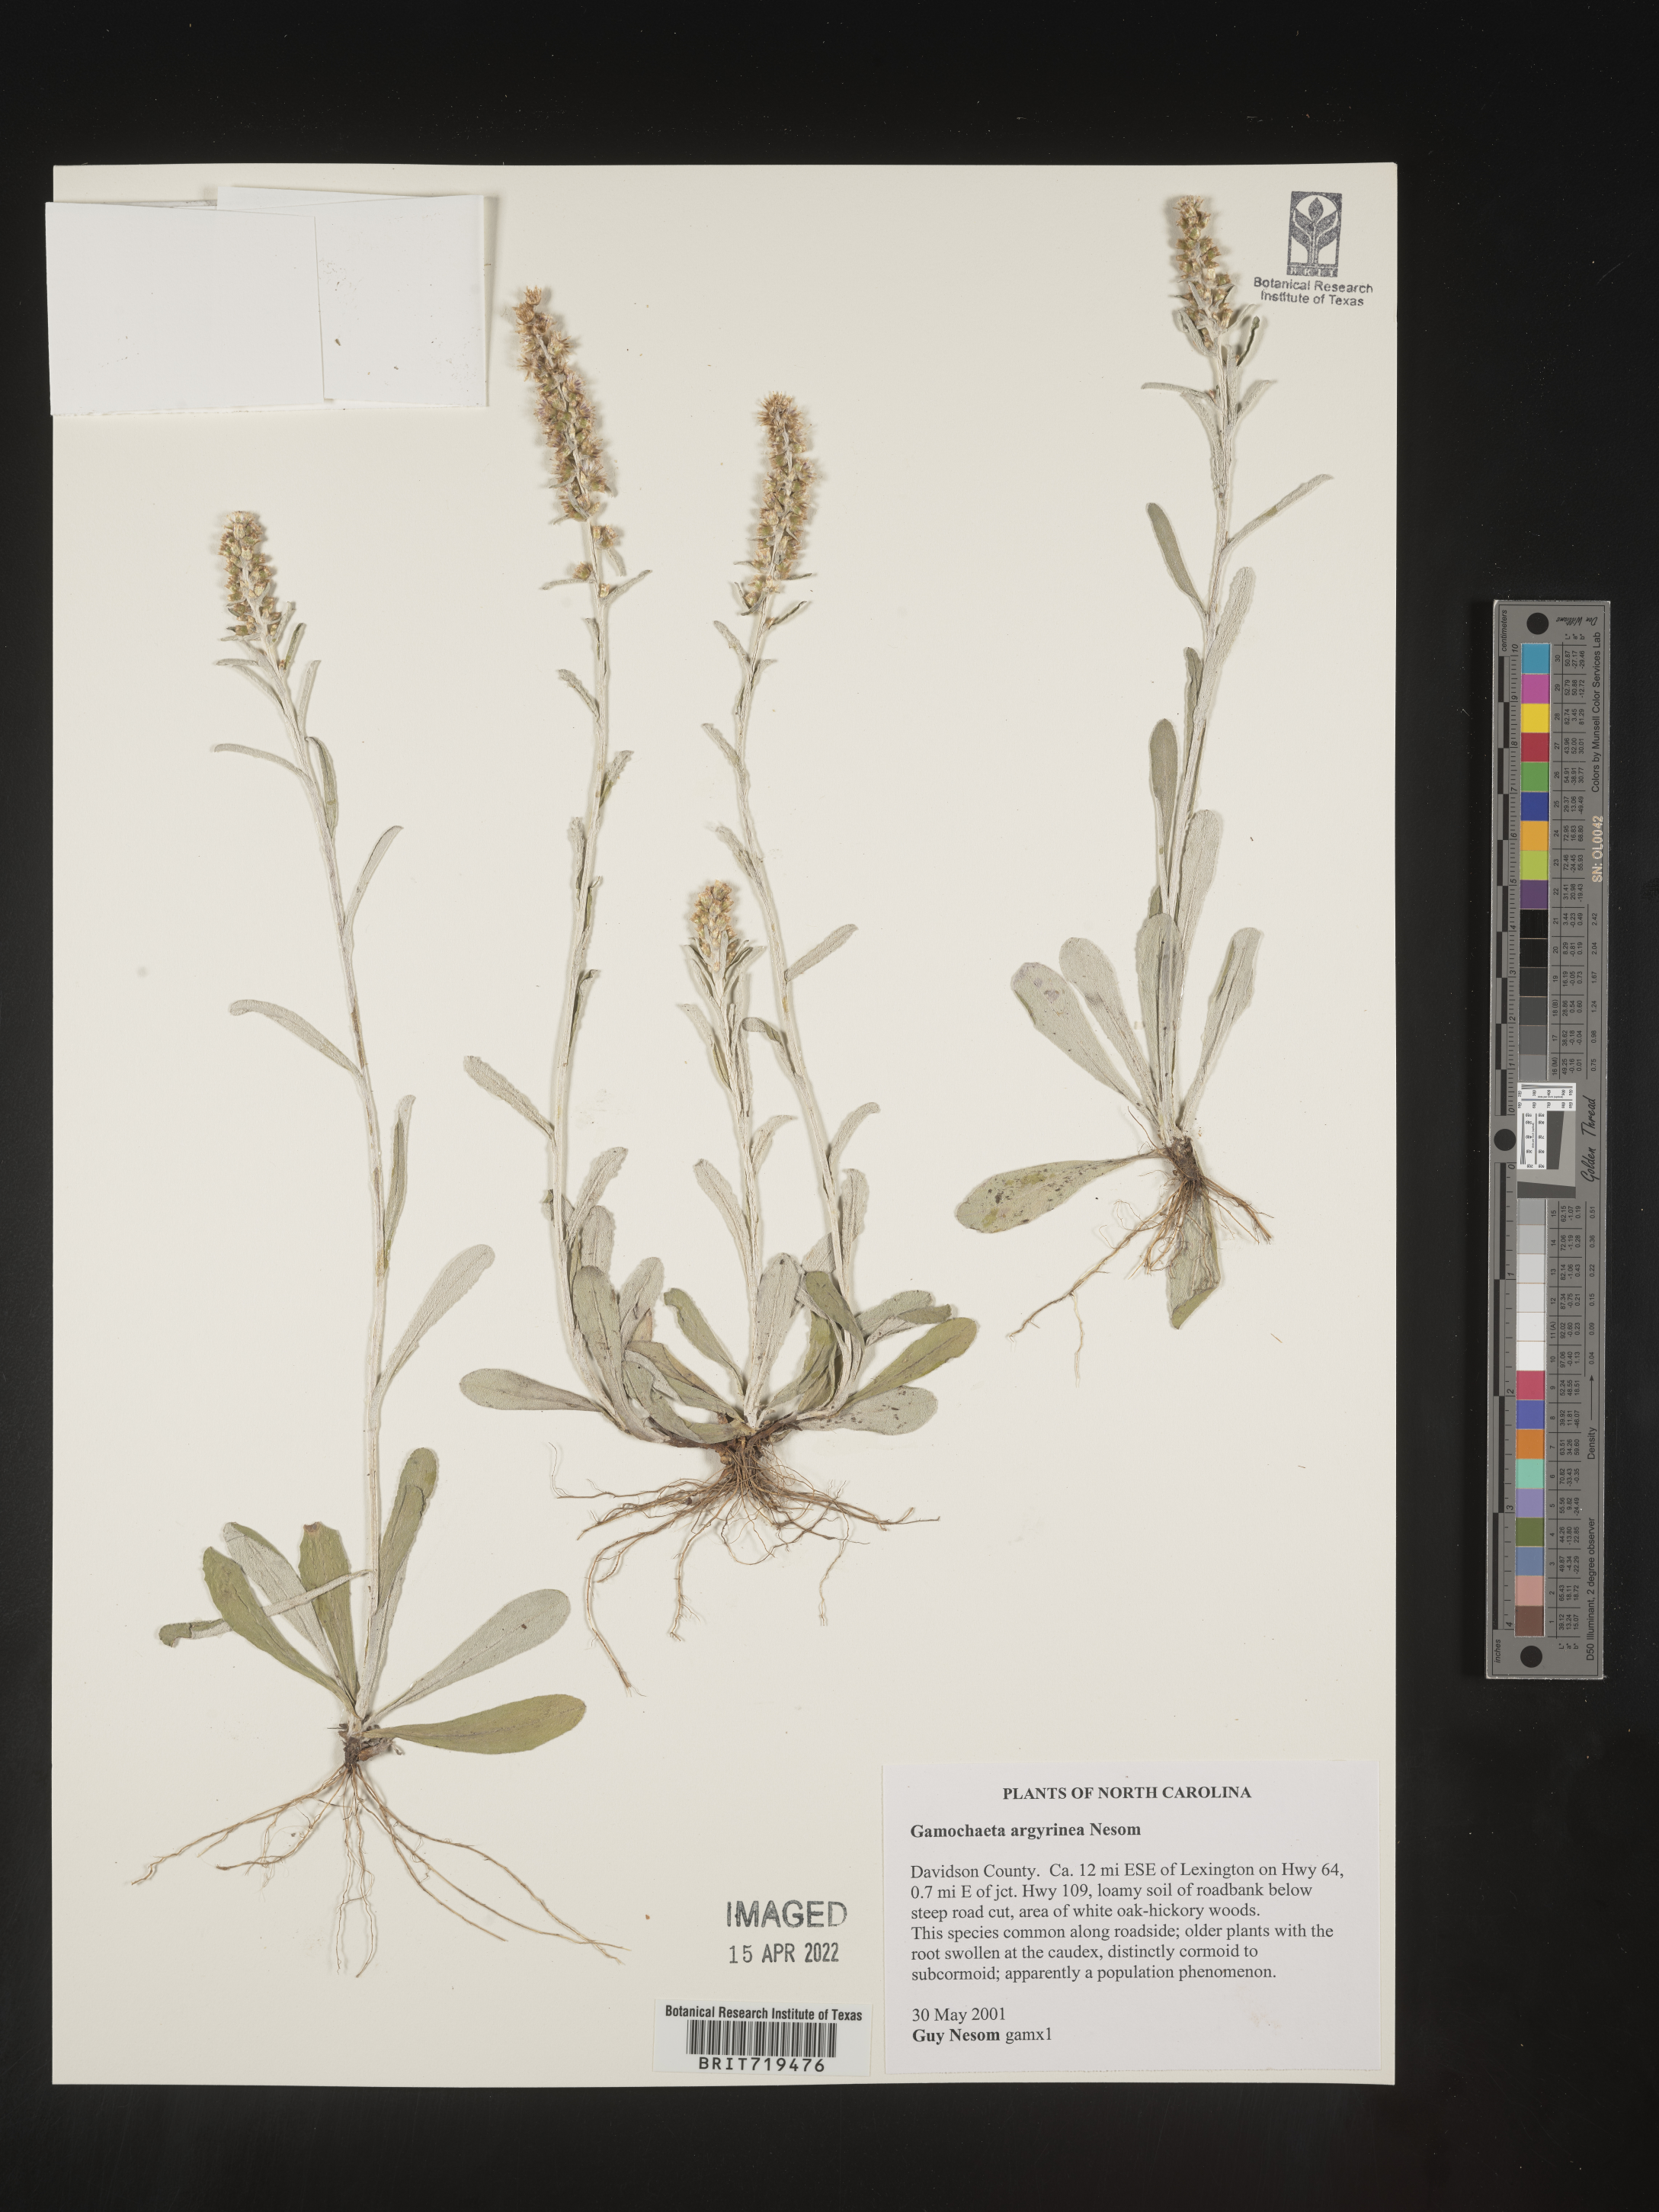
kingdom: Plantae
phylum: Tracheophyta
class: Magnoliopsida
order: Asterales
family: Asteraceae
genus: Gamochaeta
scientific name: Gamochaeta argyrinea
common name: Silvery cudweed
